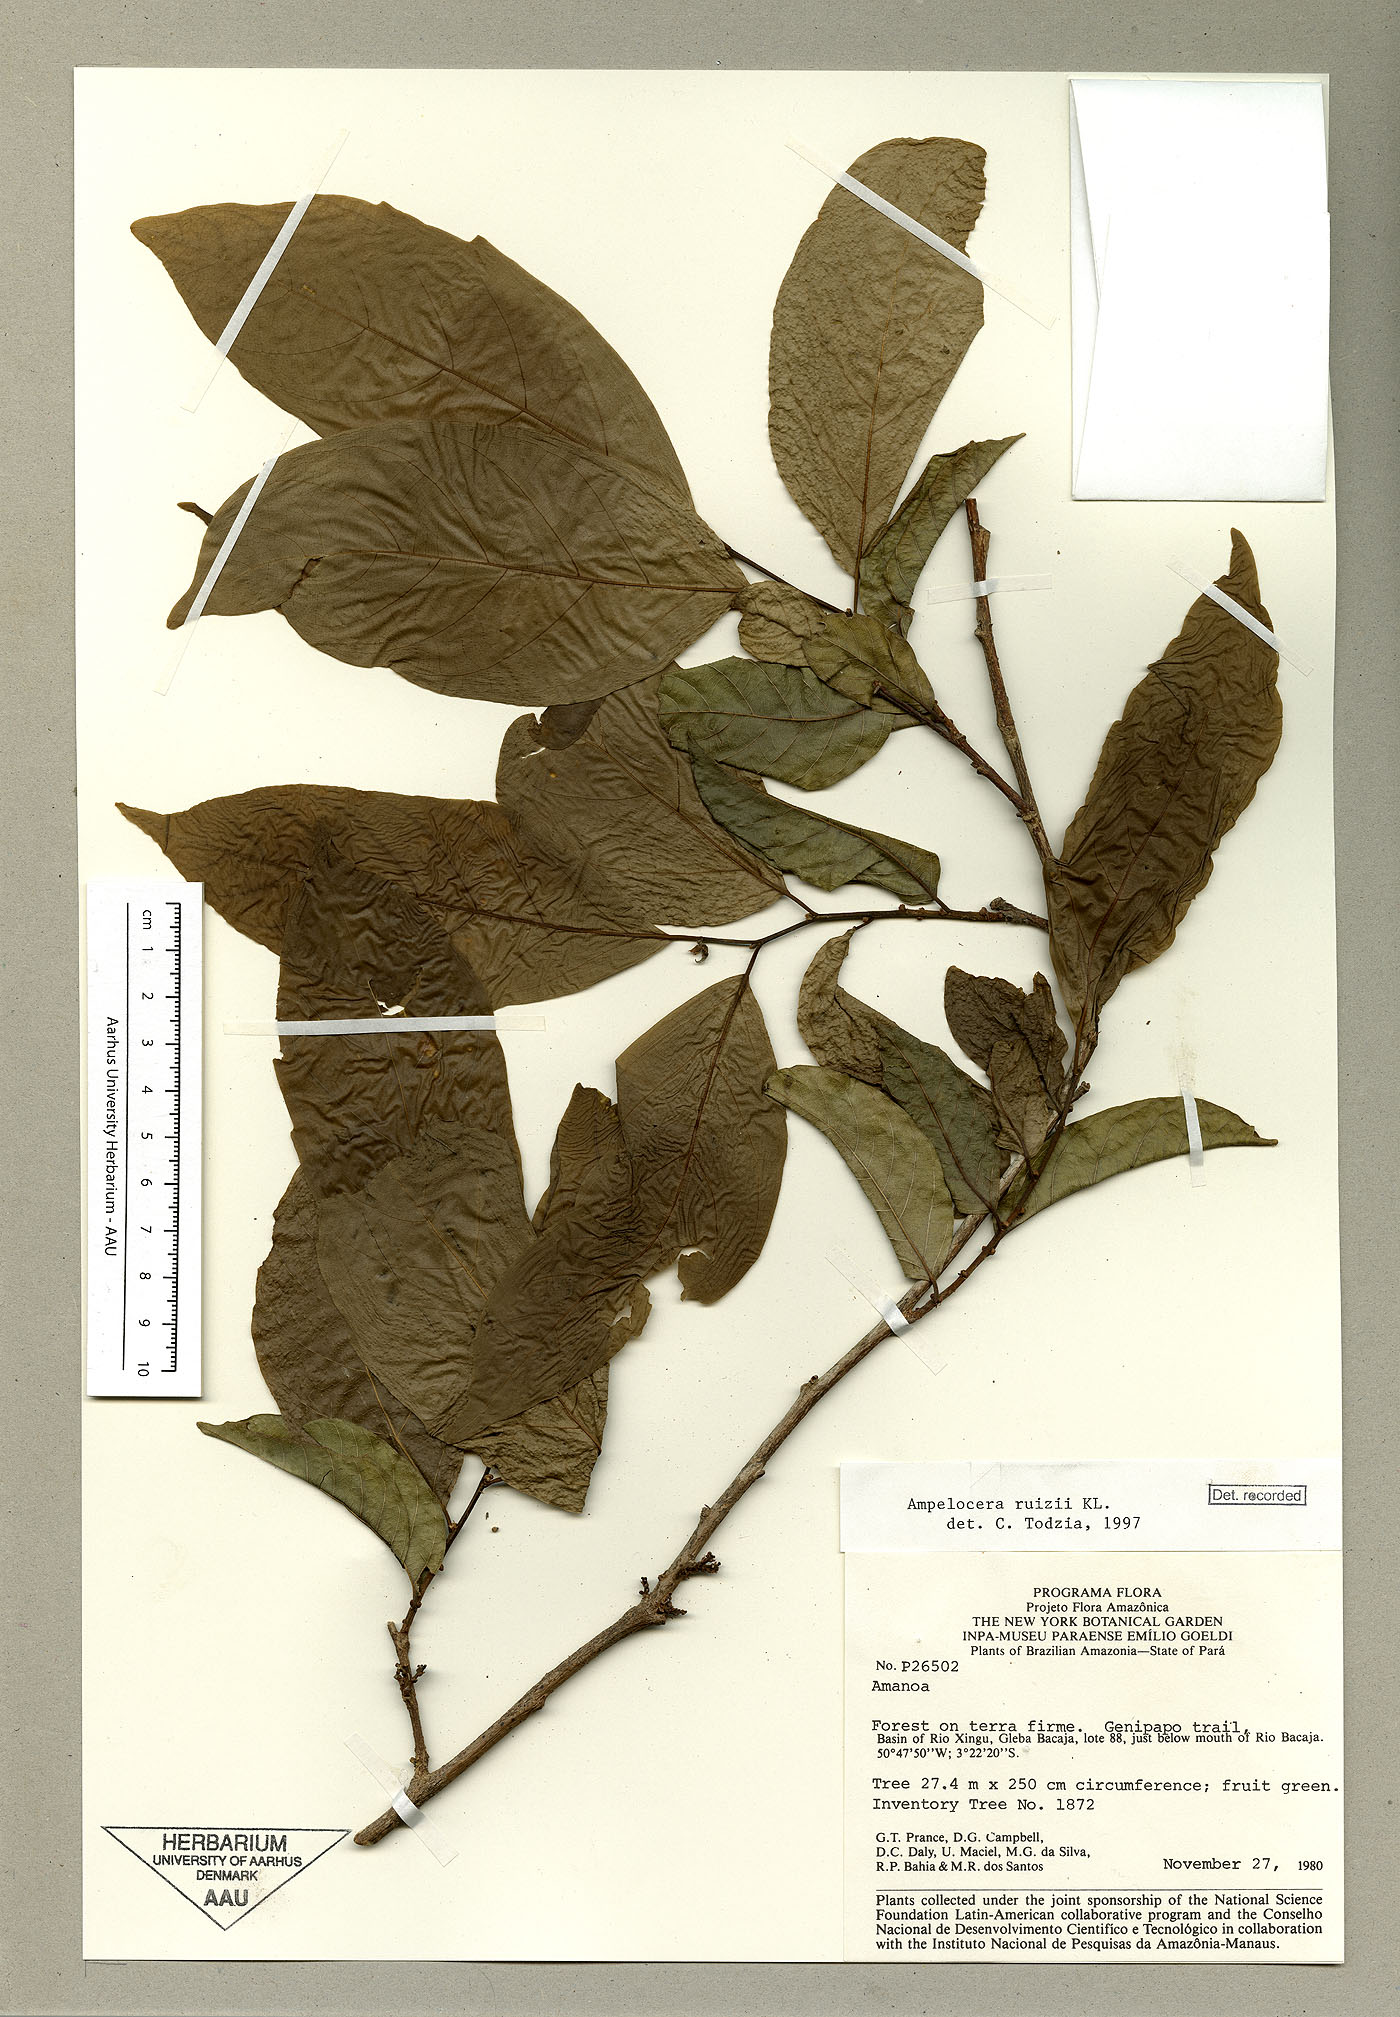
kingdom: Plantae
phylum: Tracheophyta
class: Magnoliopsida
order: Rosales
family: Cannabaceae
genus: Ampelocera
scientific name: Ampelocera ruizii
